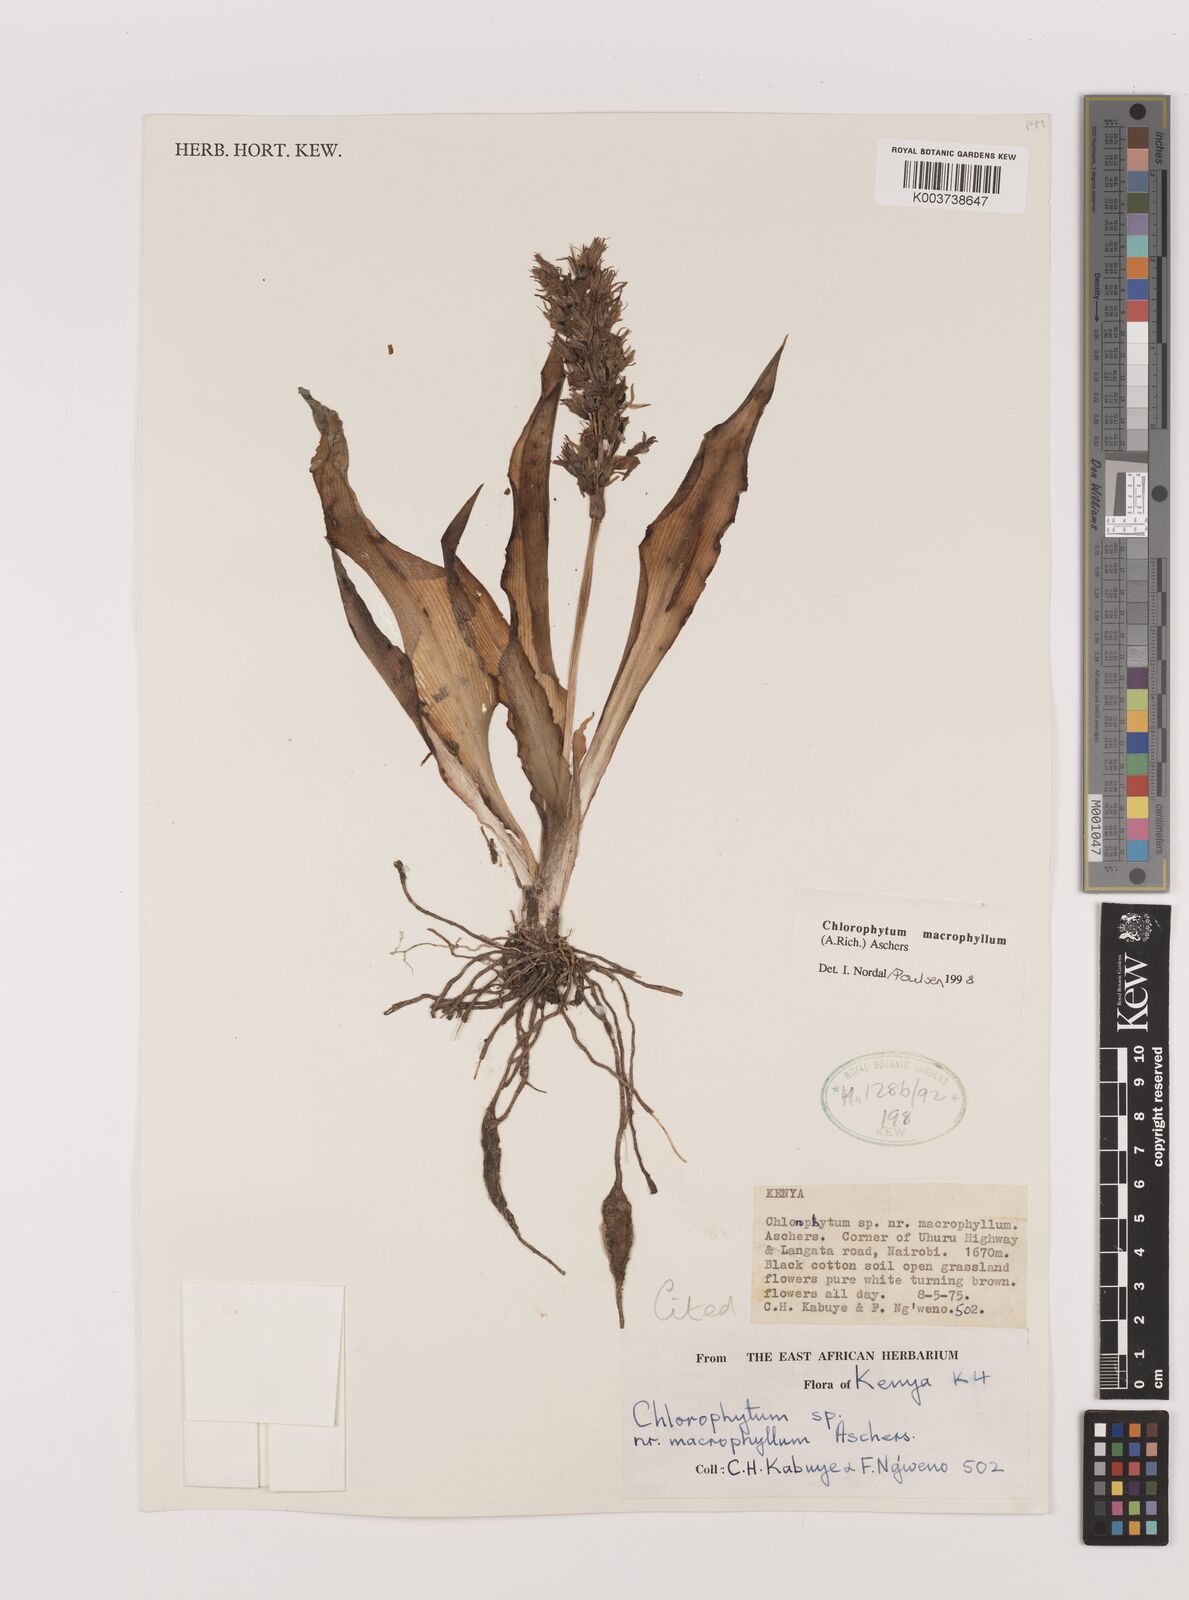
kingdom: Plantae
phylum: Tracheophyta
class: Liliopsida
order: Asparagales
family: Asparagaceae
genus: Chlorophytum
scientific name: Chlorophytum macrophyllum
